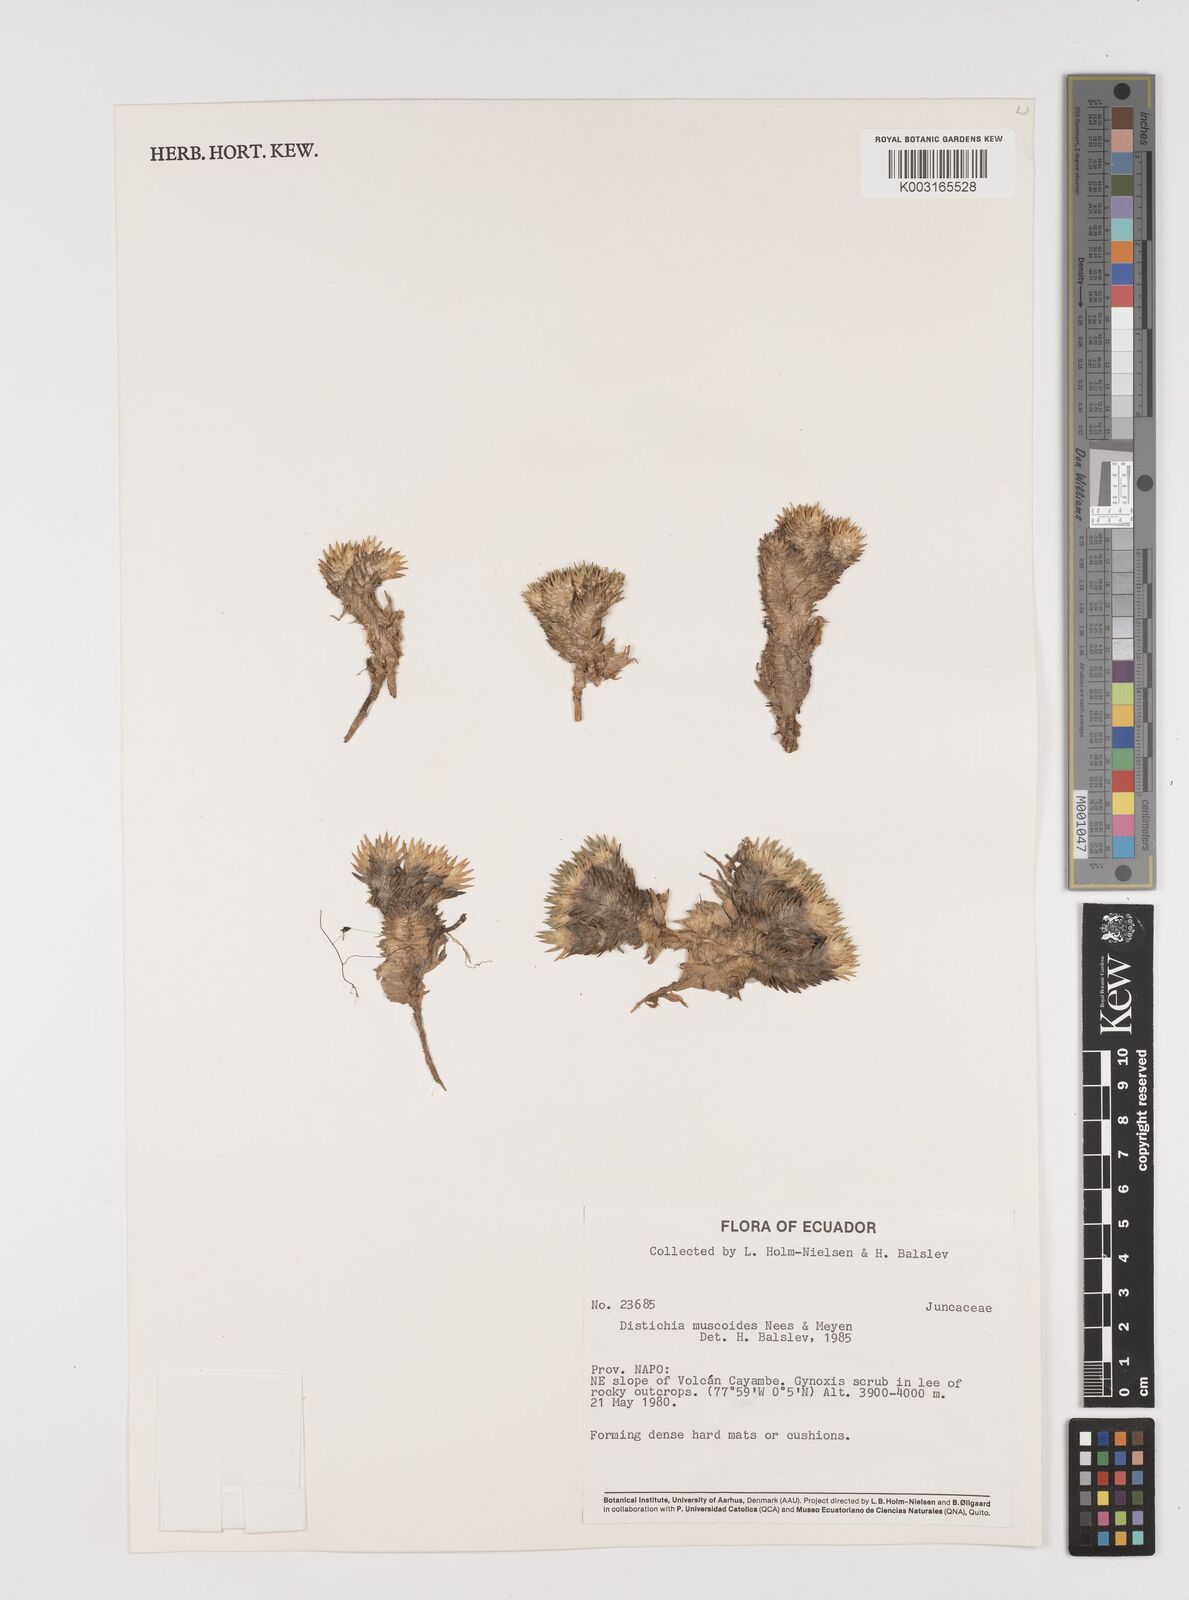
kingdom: Plantae
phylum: Tracheophyta
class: Liliopsida
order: Poales
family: Juncaceae
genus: Distichia
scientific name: Distichia muscoides
